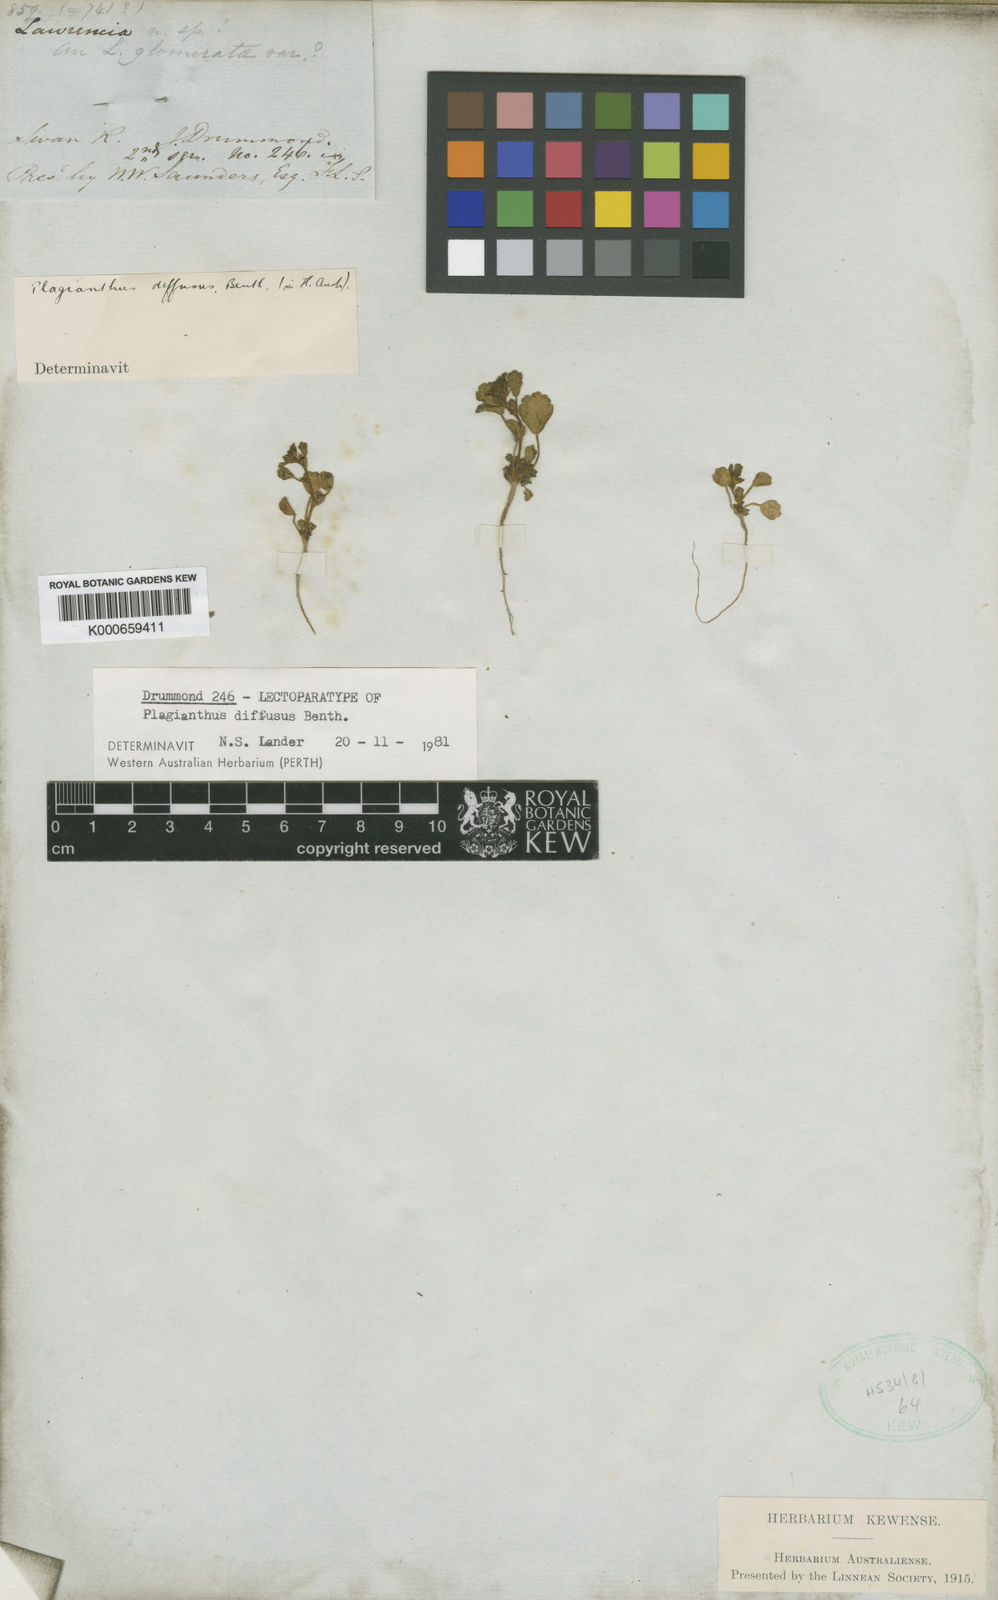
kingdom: Plantae
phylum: Tracheophyta
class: Magnoliopsida
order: Malvales
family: Malvaceae
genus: Lawrencia
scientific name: Lawrencia diffusa
